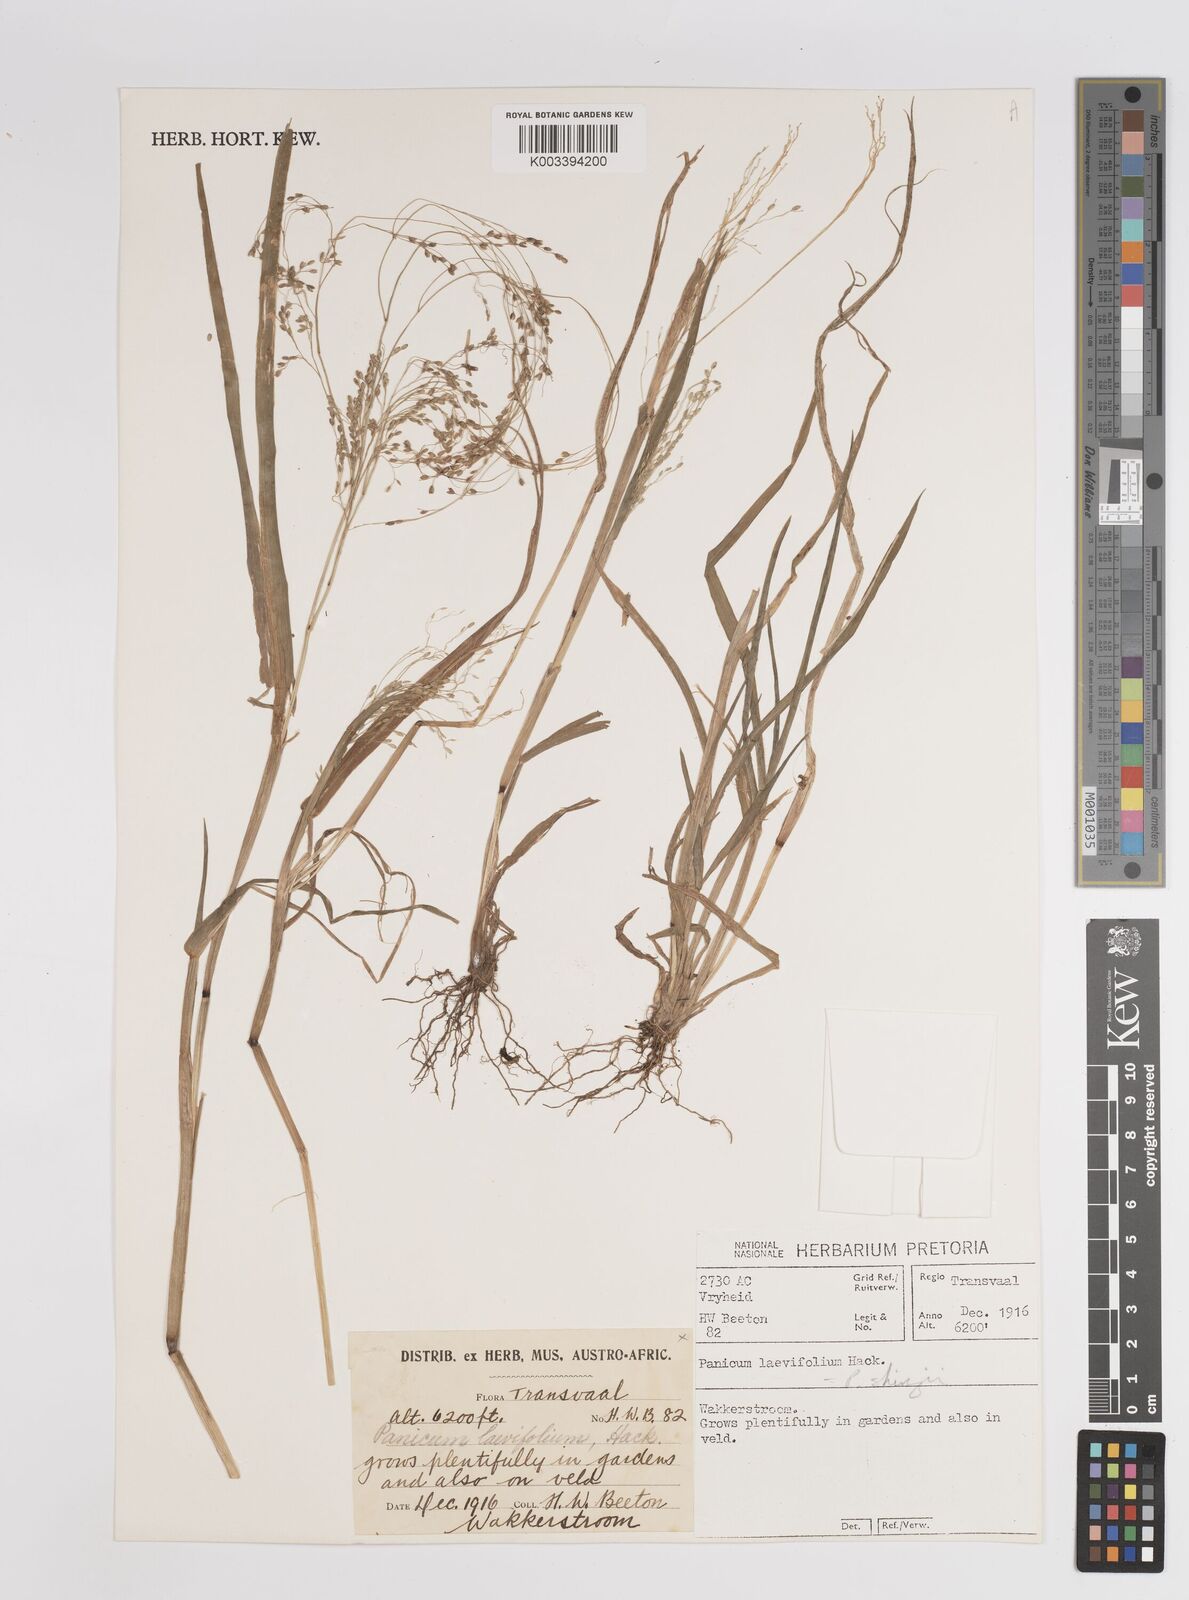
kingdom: Plantae
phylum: Tracheophyta
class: Liliopsida
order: Poales
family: Poaceae
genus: Panicum
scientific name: Panicum schinzii
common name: Sweet grass
